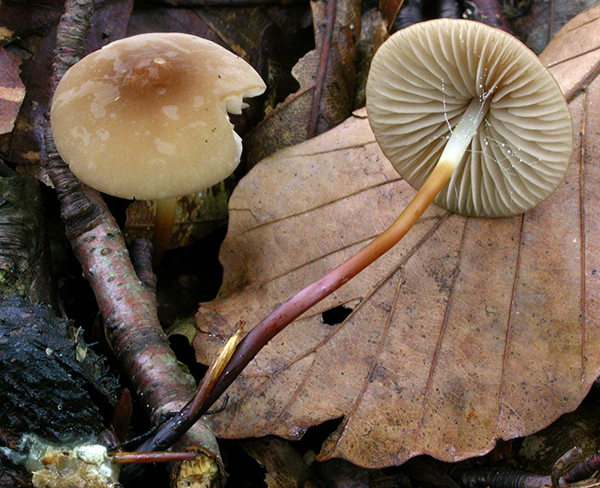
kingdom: Fungi
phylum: Basidiomycota
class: Agaricomycetes
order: Agaricales
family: Marasmiaceae
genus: Marasmius
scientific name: Marasmius cohaerens
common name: hornstokket bruskhat
